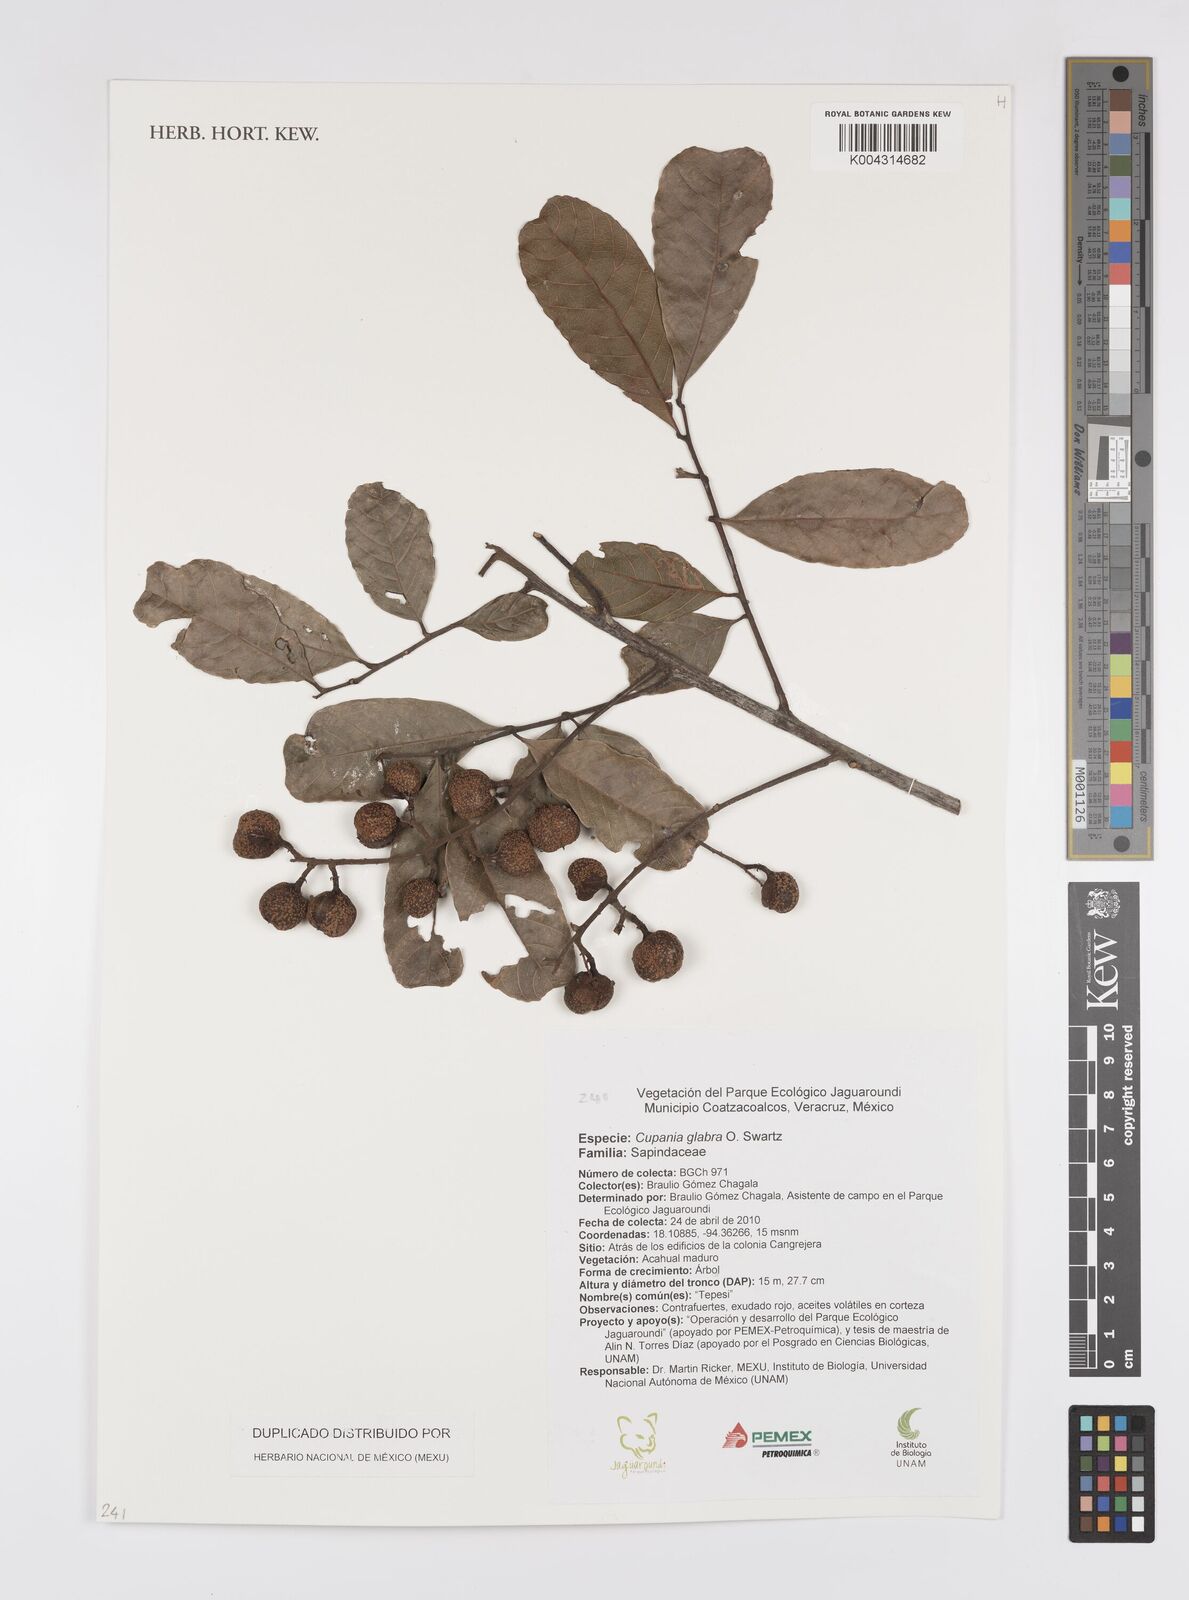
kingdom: Plantae
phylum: Tracheophyta
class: Magnoliopsida
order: Sapindales
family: Sapindaceae
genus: Cupania
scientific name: Cupania
